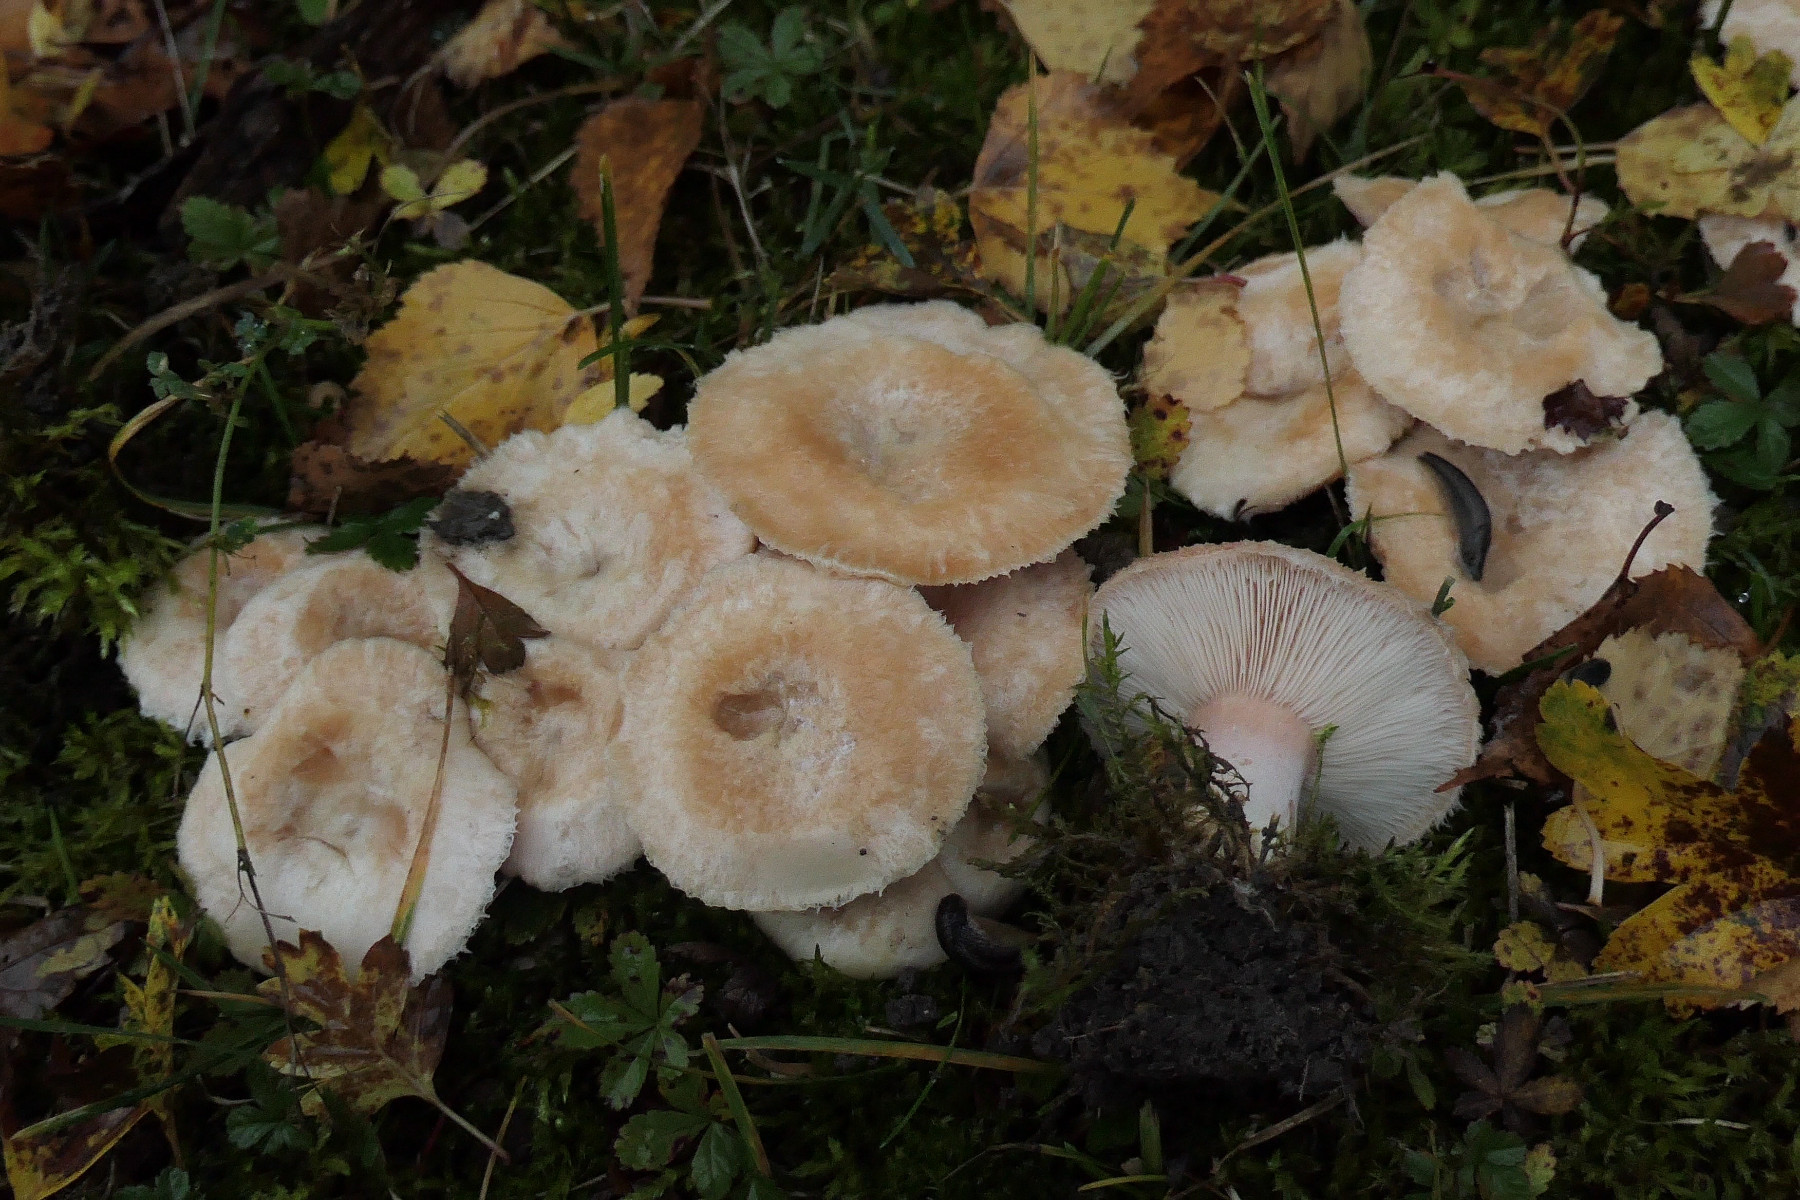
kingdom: Fungi
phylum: Basidiomycota
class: Agaricomycetes
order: Russulales
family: Russulaceae
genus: Lactarius
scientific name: Lactarius pubescens
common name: dunet mælkehat
